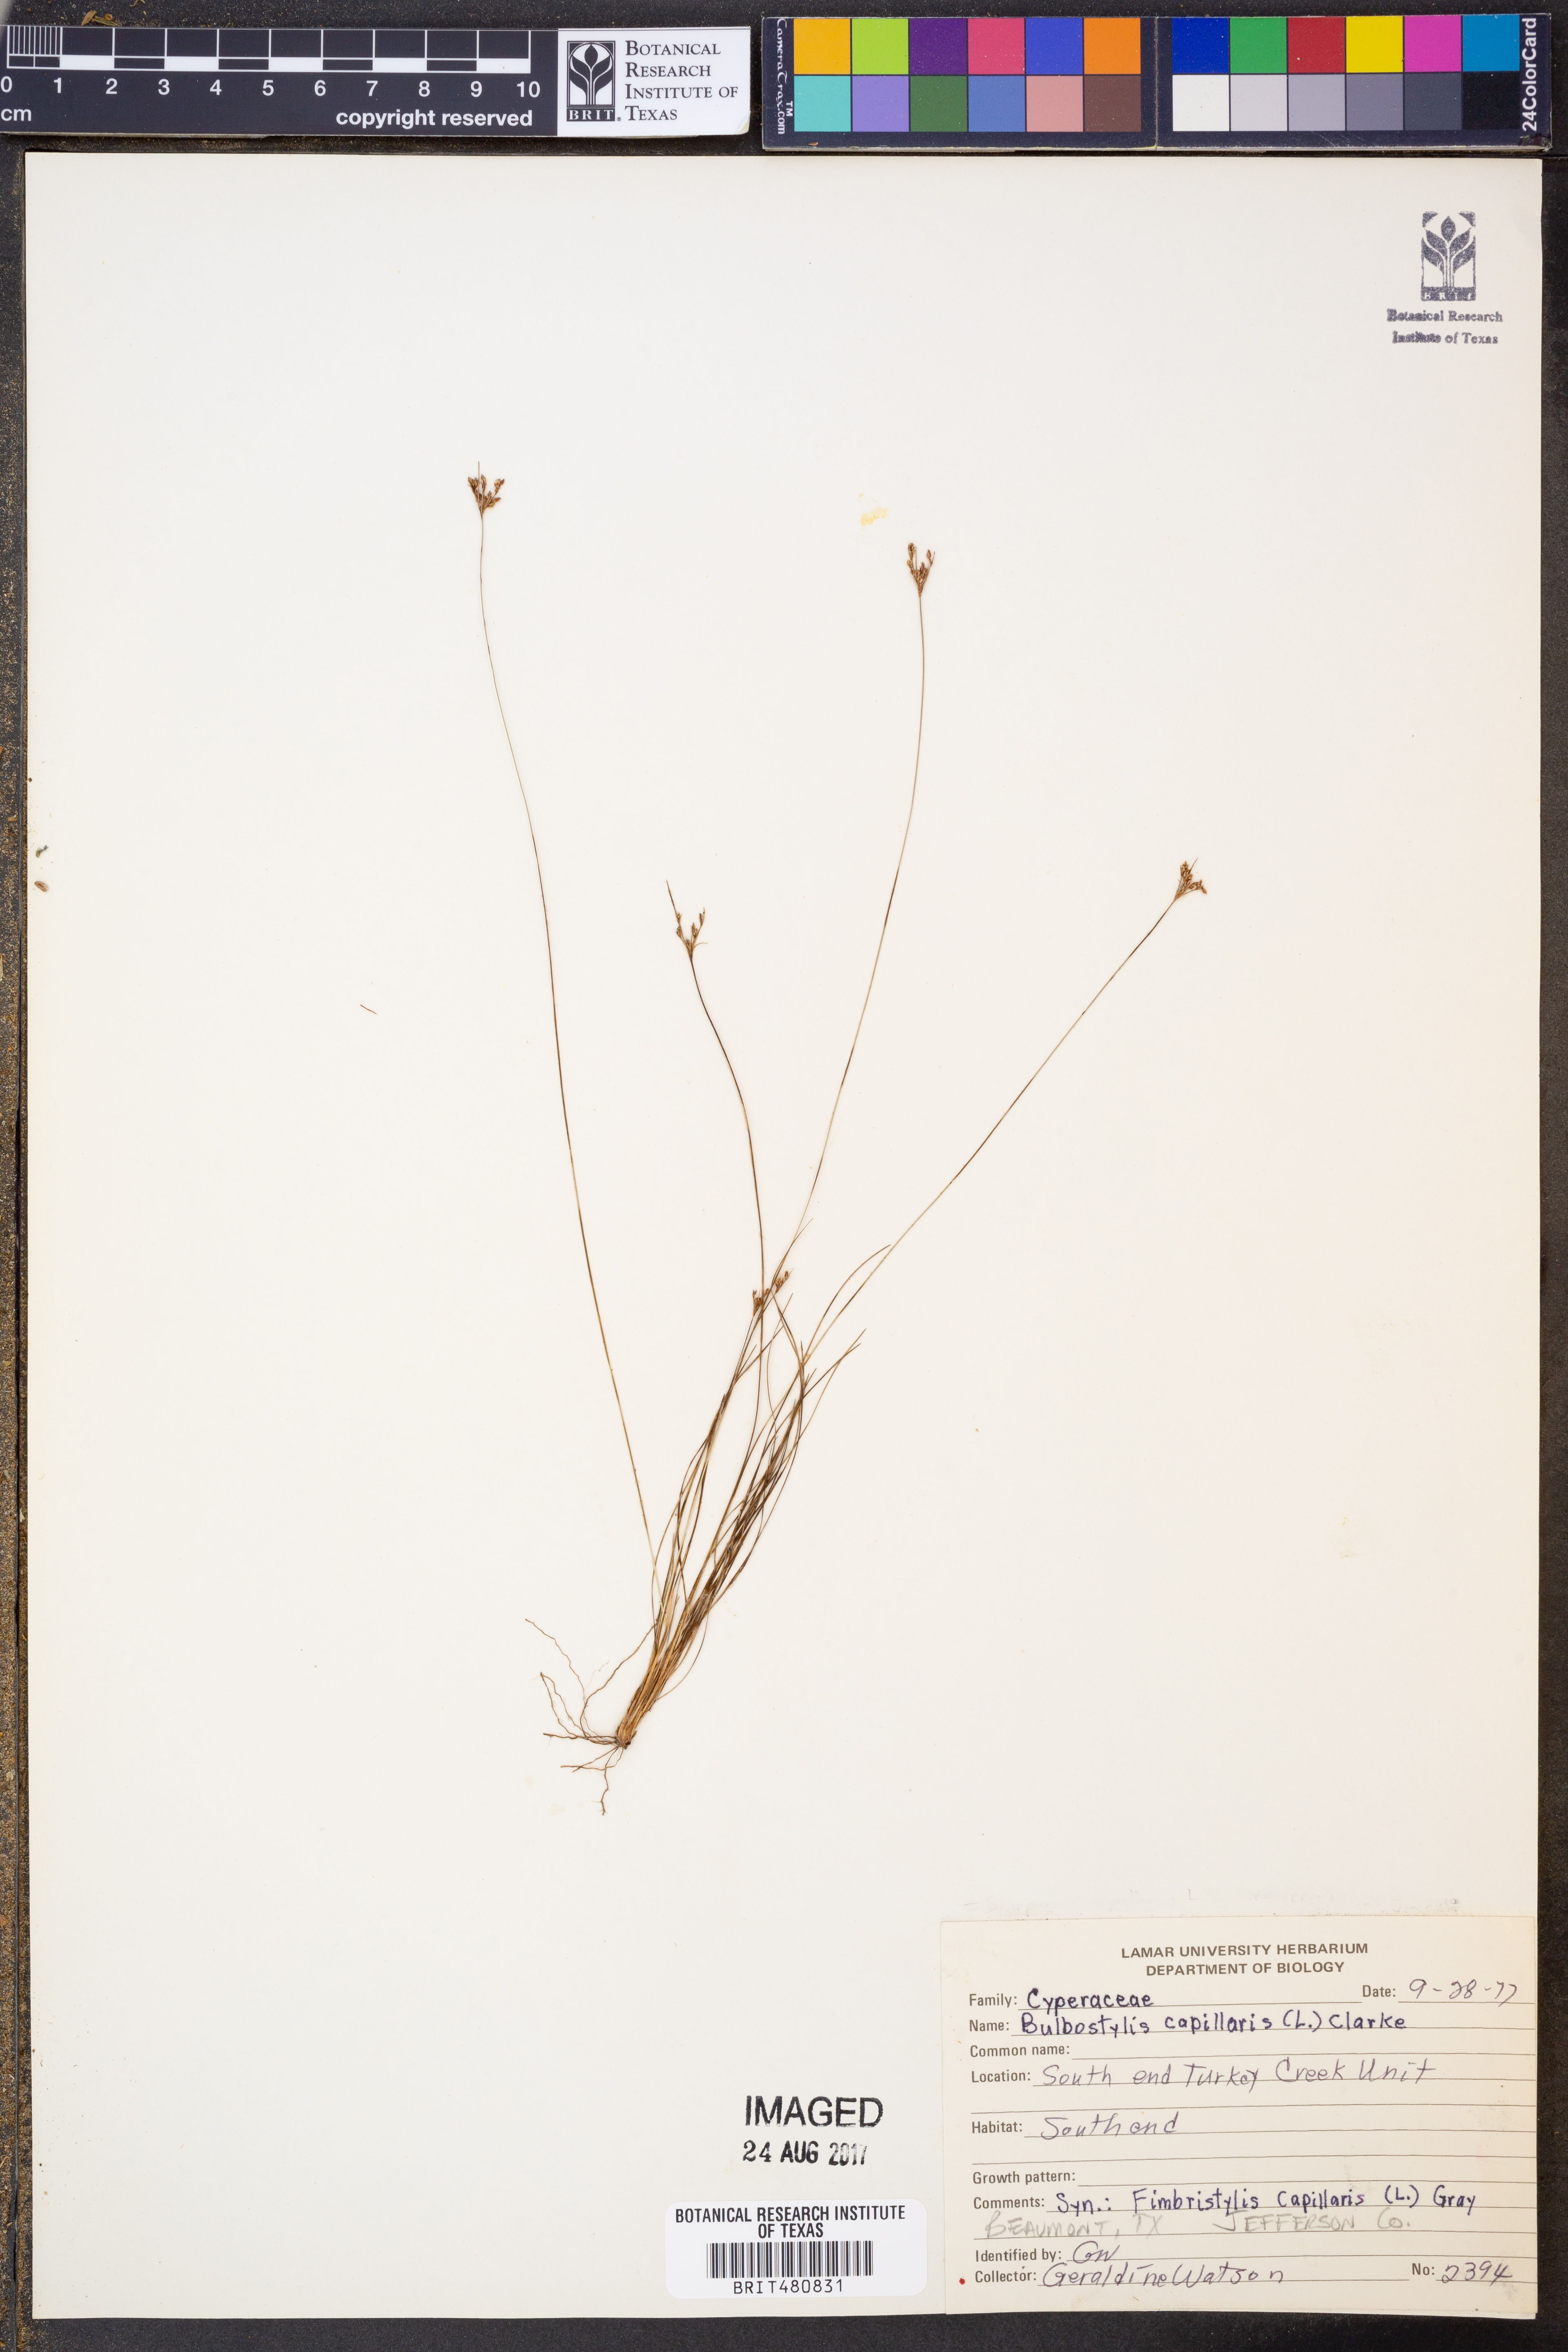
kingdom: Plantae
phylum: Tracheophyta
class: Liliopsida
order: Poales
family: Cyperaceae
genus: Bulbostylis
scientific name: Bulbostylis capillaris
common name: Densetuft hairsedge
